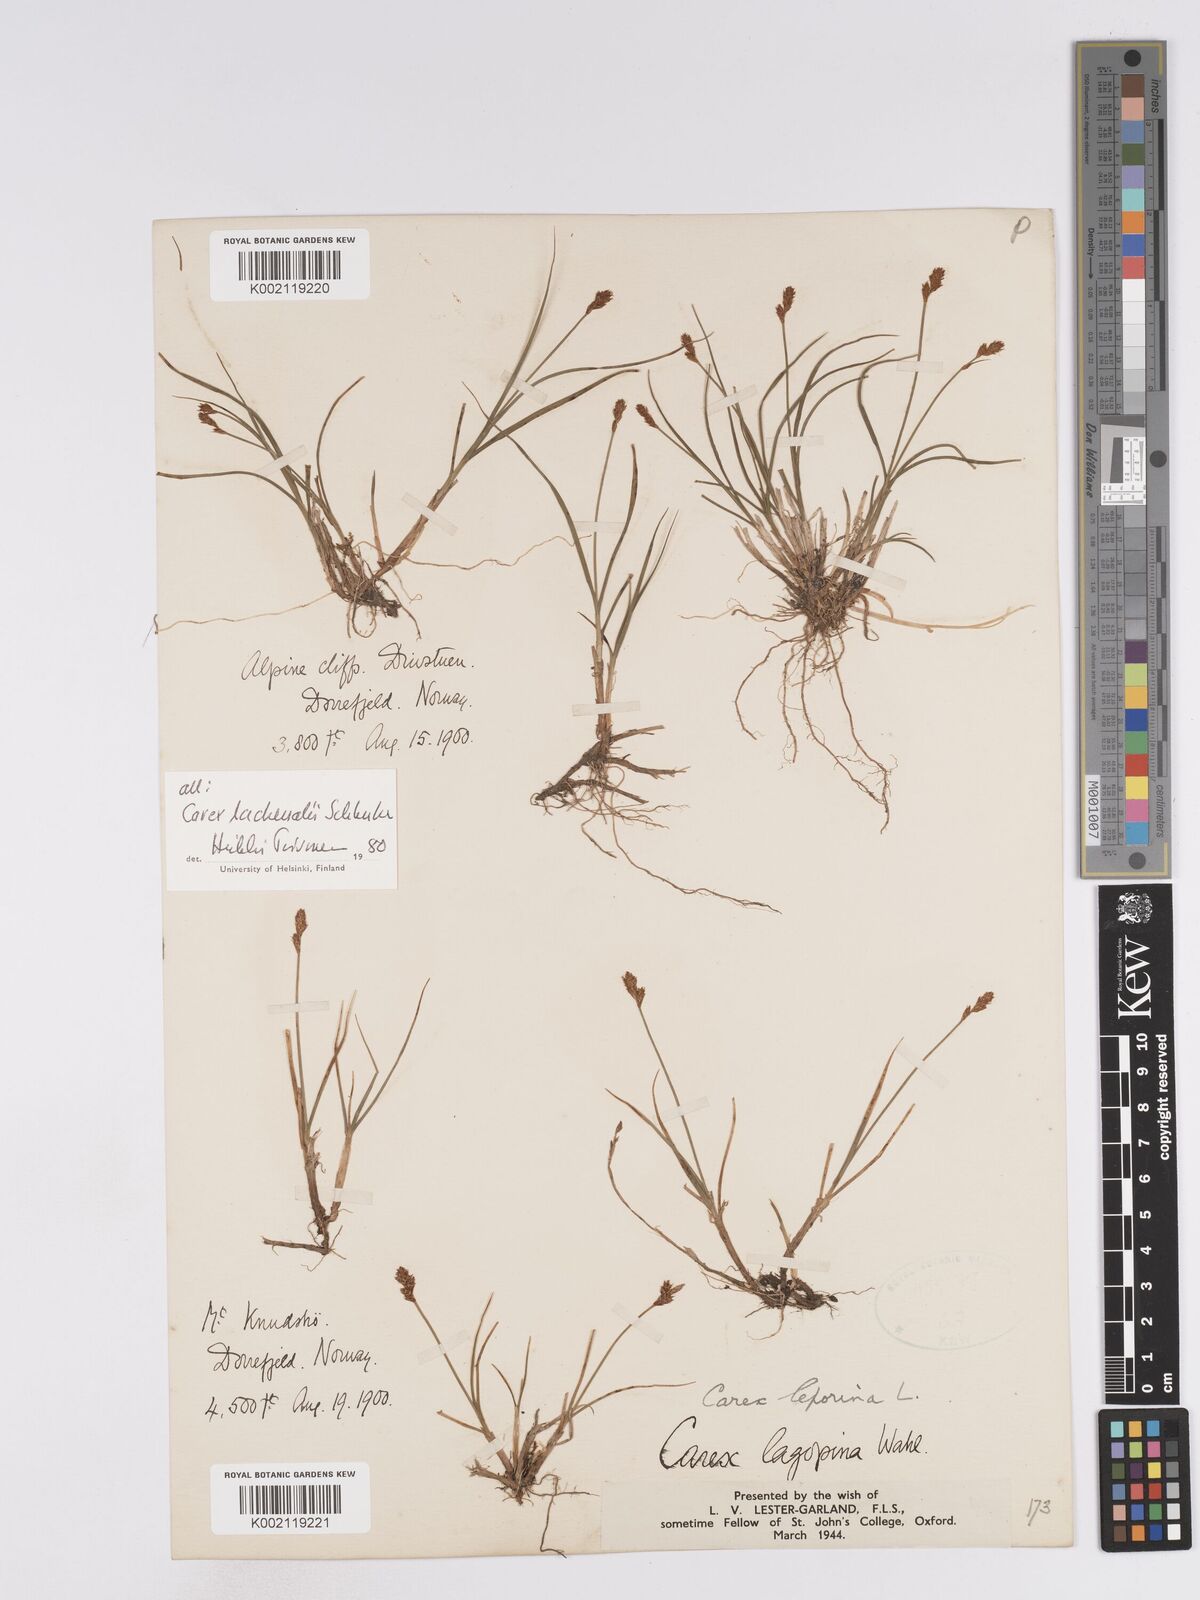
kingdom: Plantae
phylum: Tracheophyta
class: Liliopsida
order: Poales
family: Cyperaceae
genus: Carex
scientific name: Carex lachenalii
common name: Hare's-foot sedge
